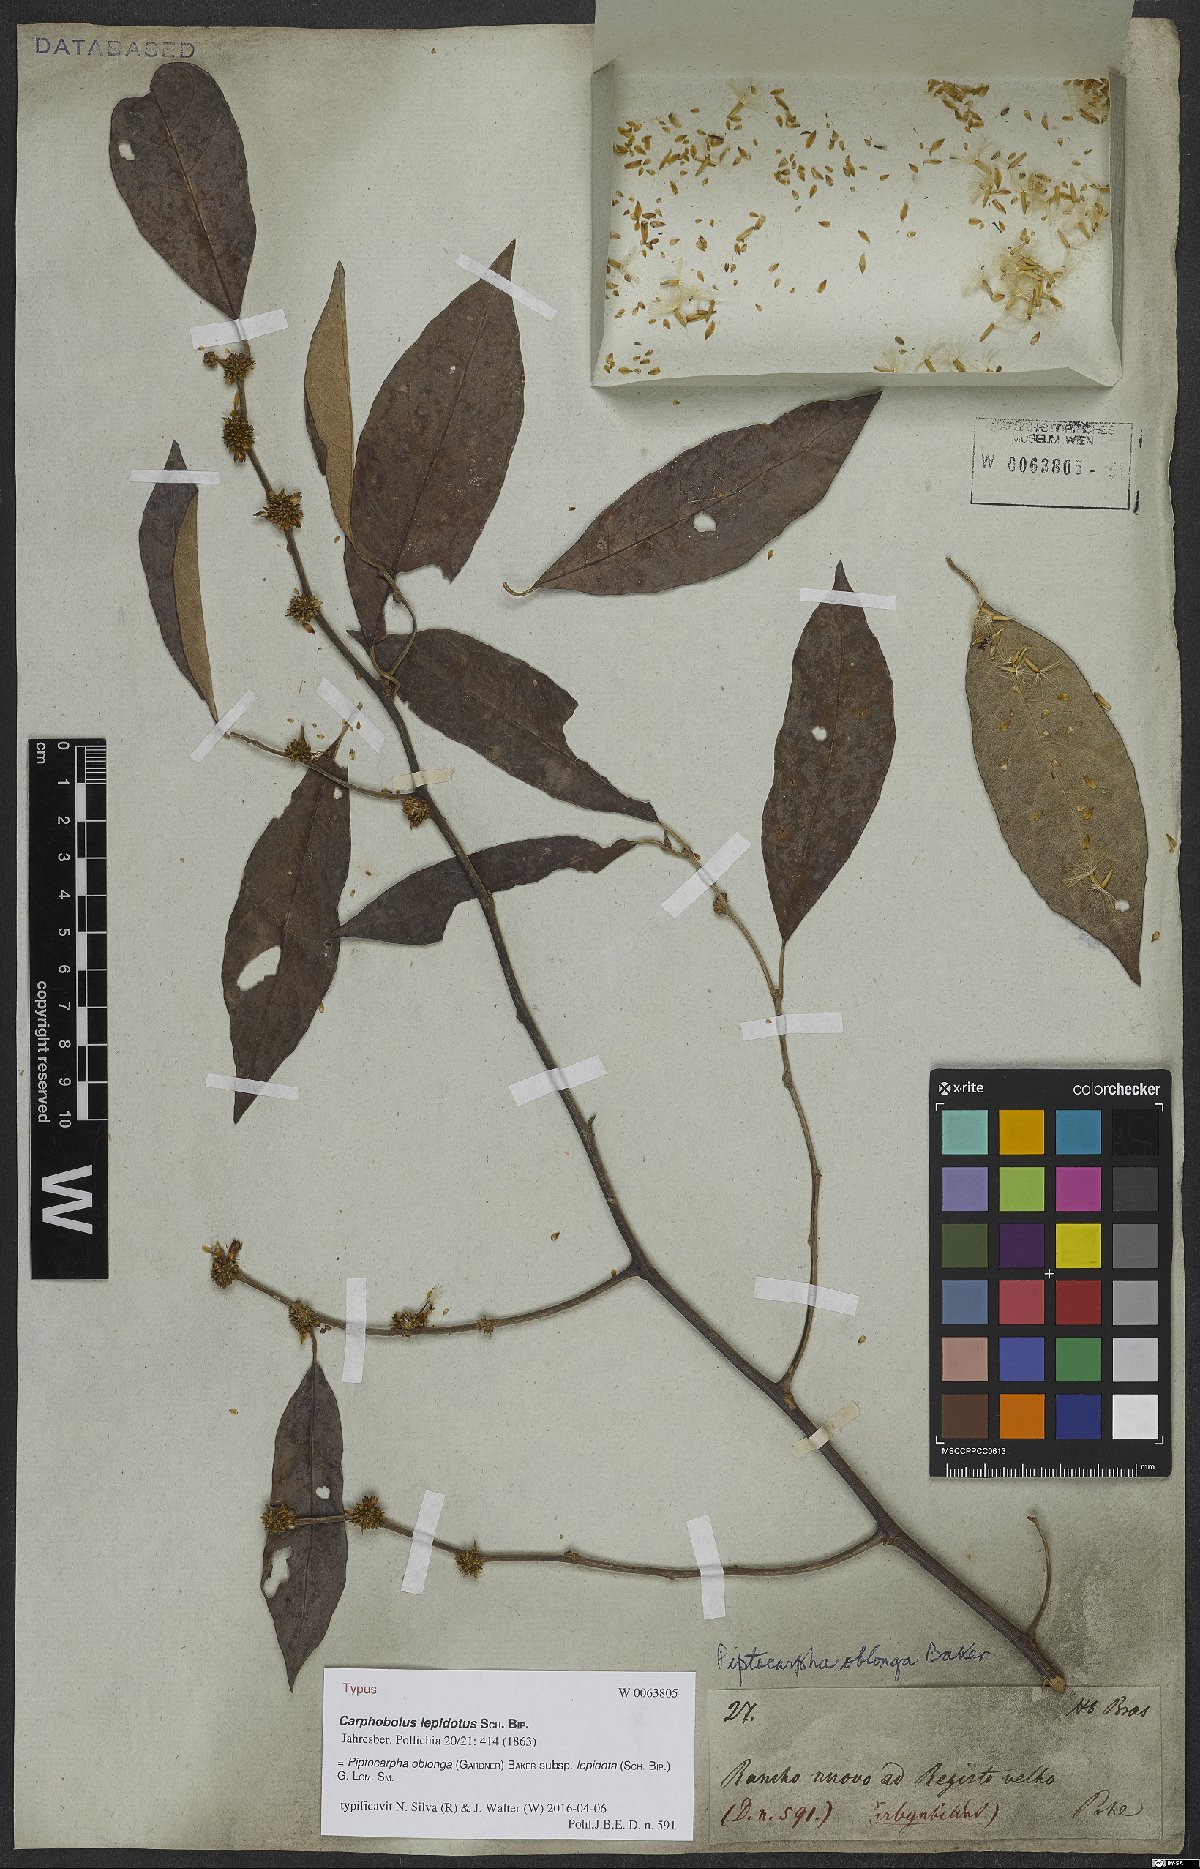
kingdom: Plantae
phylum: Tracheophyta
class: Magnoliopsida
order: Asterales
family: Asteraceae
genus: Piptocarpha
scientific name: Piptocarpha oblonga
